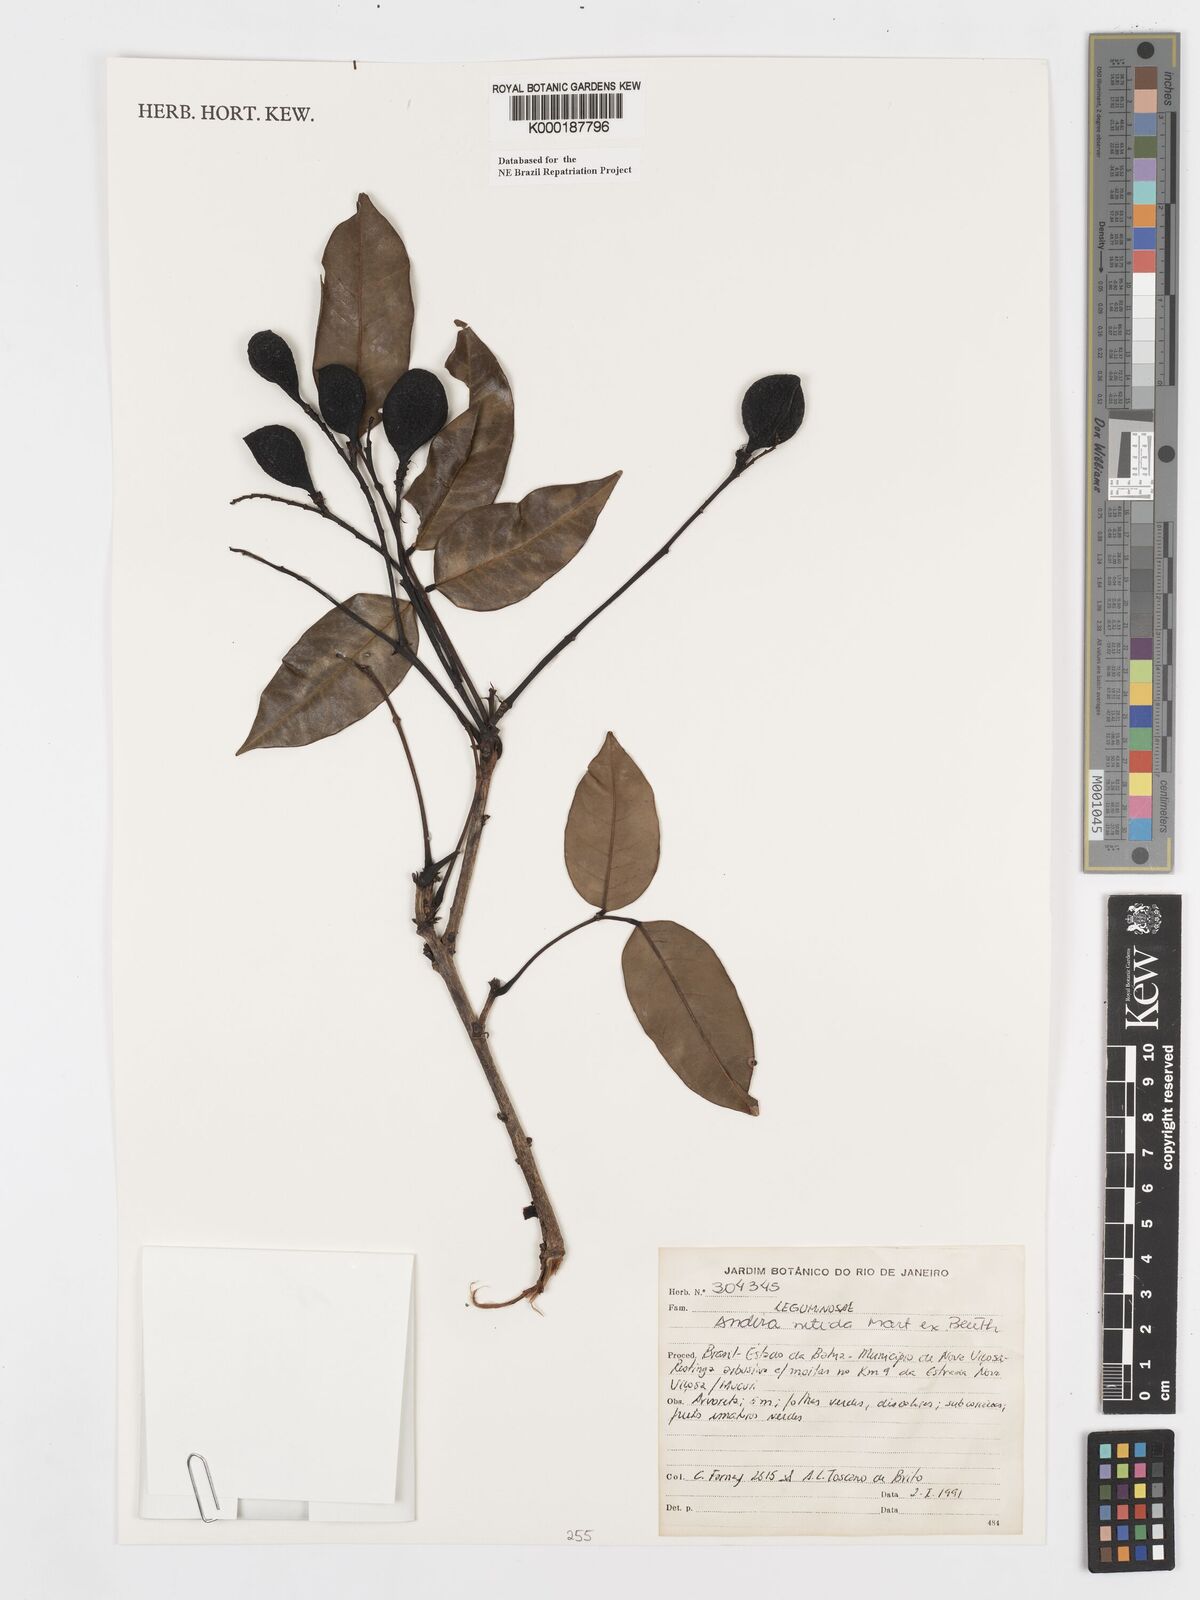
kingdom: Plantae
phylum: Tracheophyta
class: Magnoliopsida
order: Fabales
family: Fabaceae
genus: Andira
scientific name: Andira nitida
